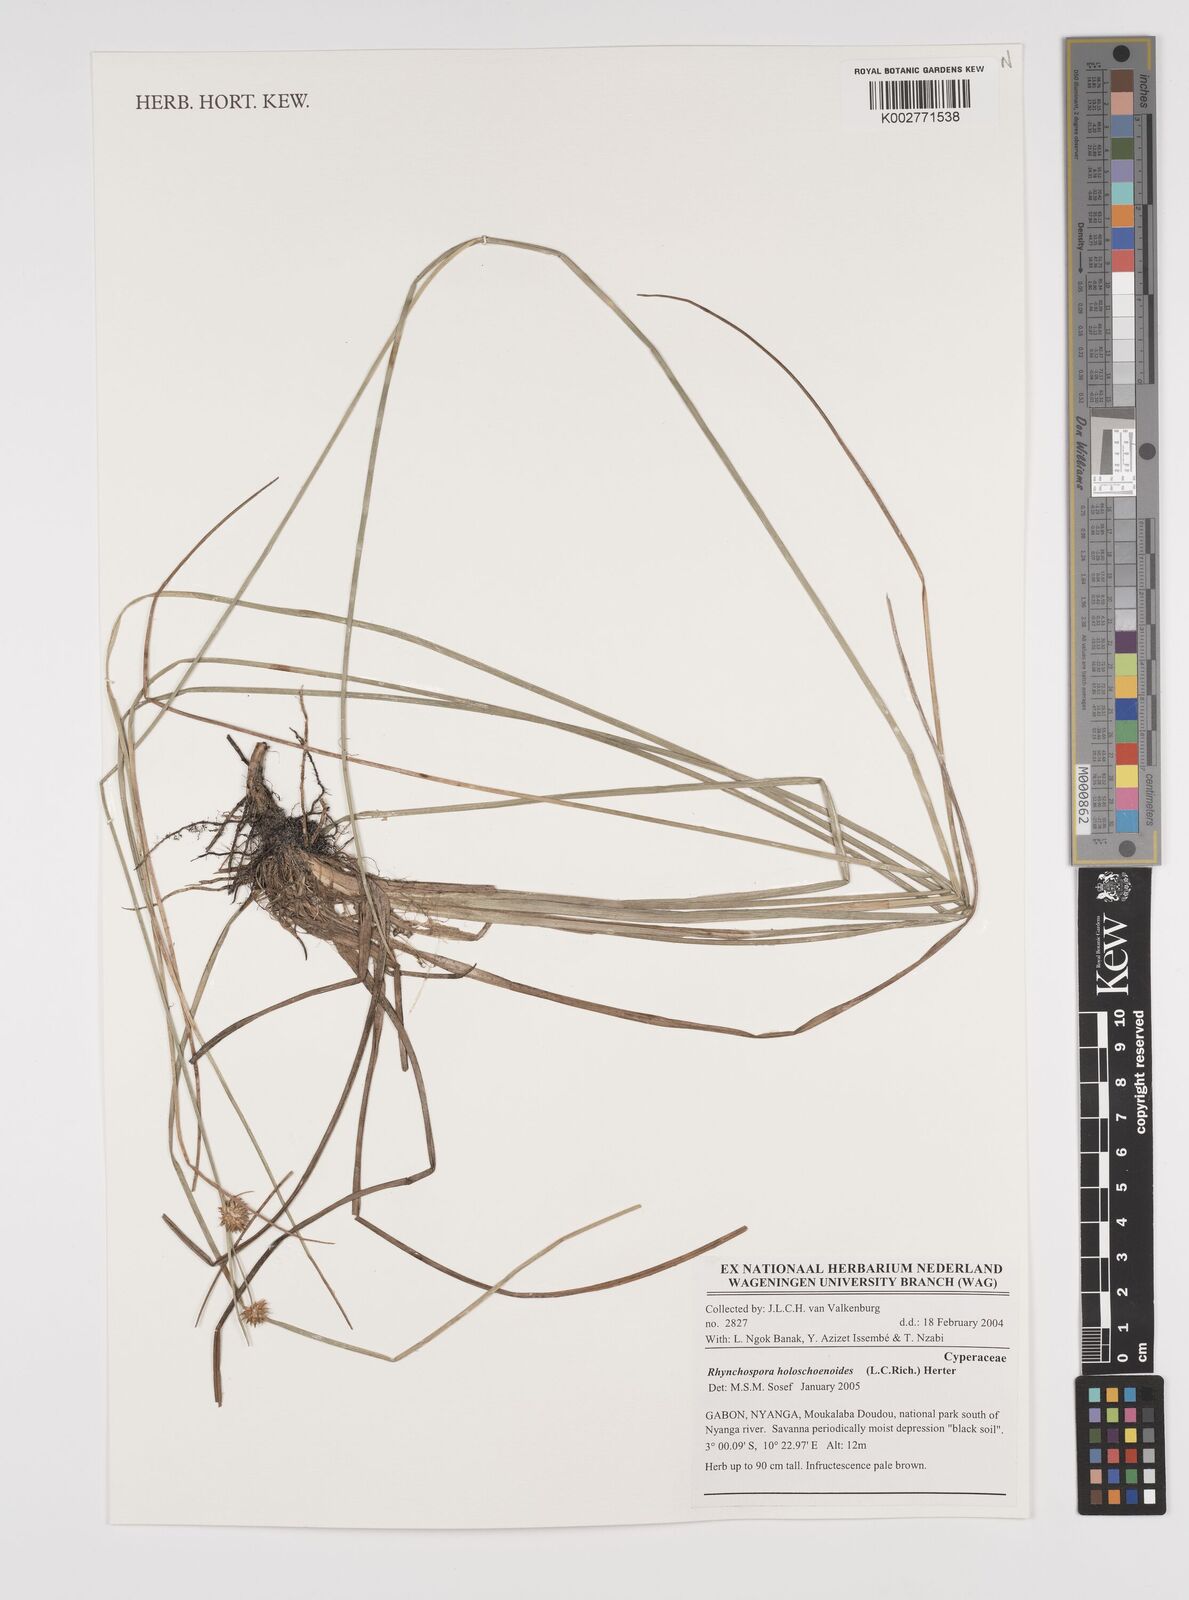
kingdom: Plantae
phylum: Tracheophyta
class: Liliopsida
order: Poales
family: Cyperaceae
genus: Rhynchospora
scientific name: Rhynchospora holoschoenoides
